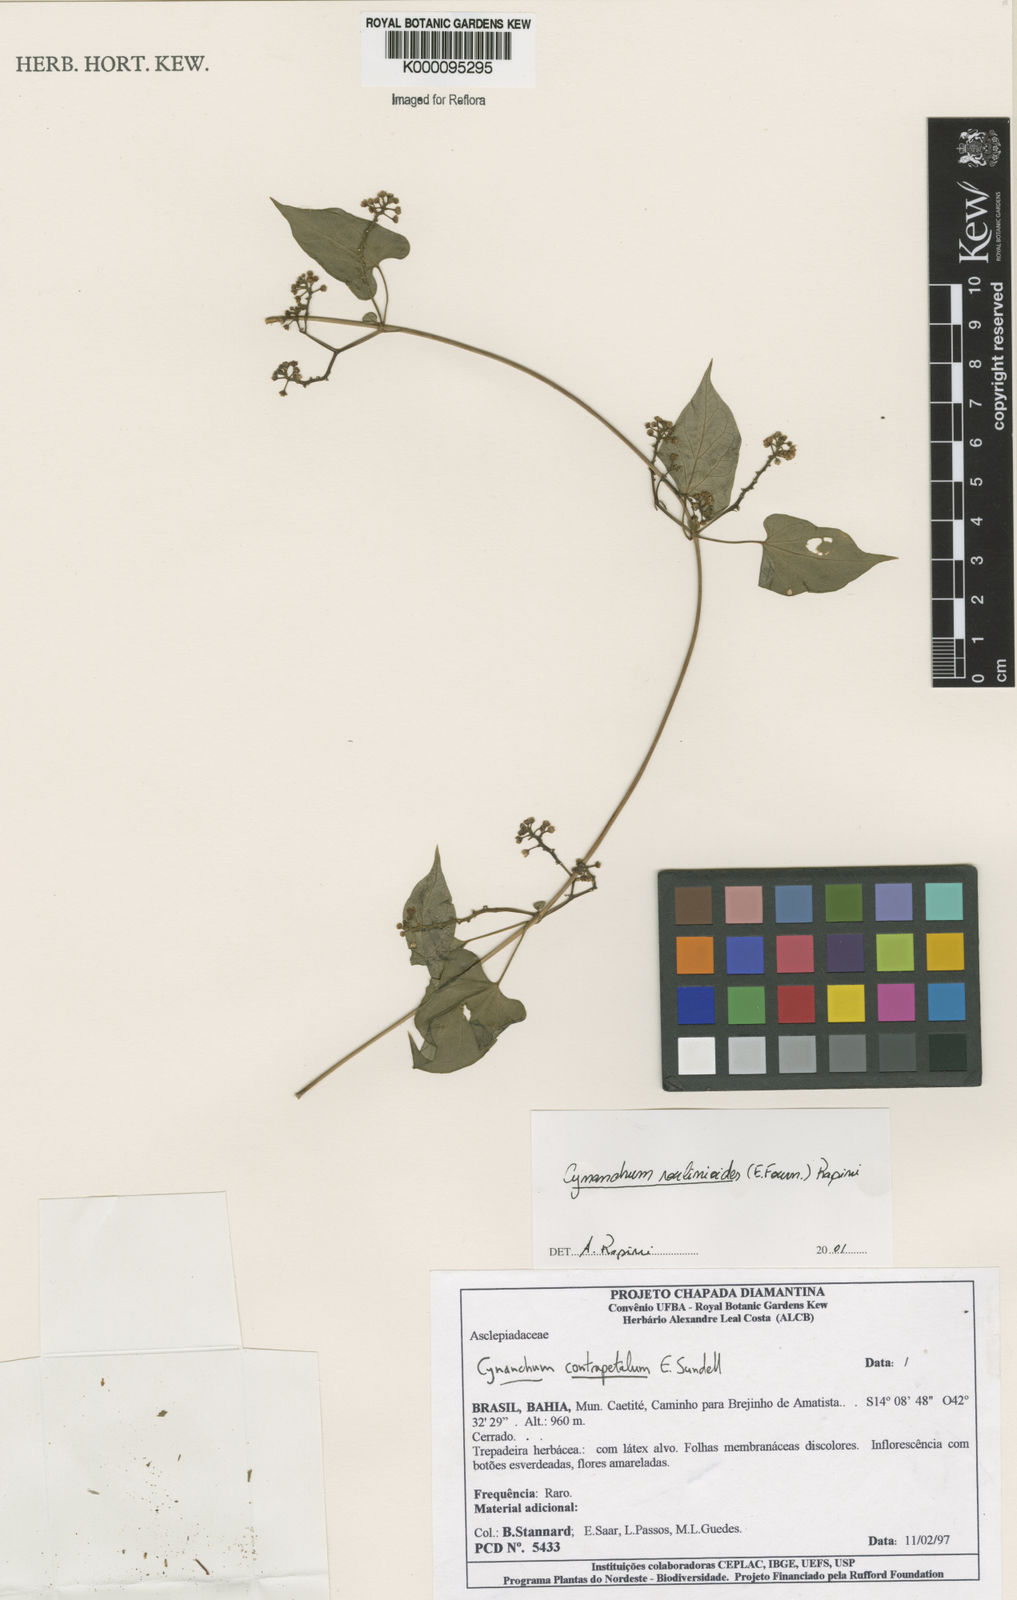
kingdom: Plantae
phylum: Tracheophyta
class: Magnoliopsida
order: Gentianales
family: Apocynaceae
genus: Cynanchum
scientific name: Cynanchum roulinioides
